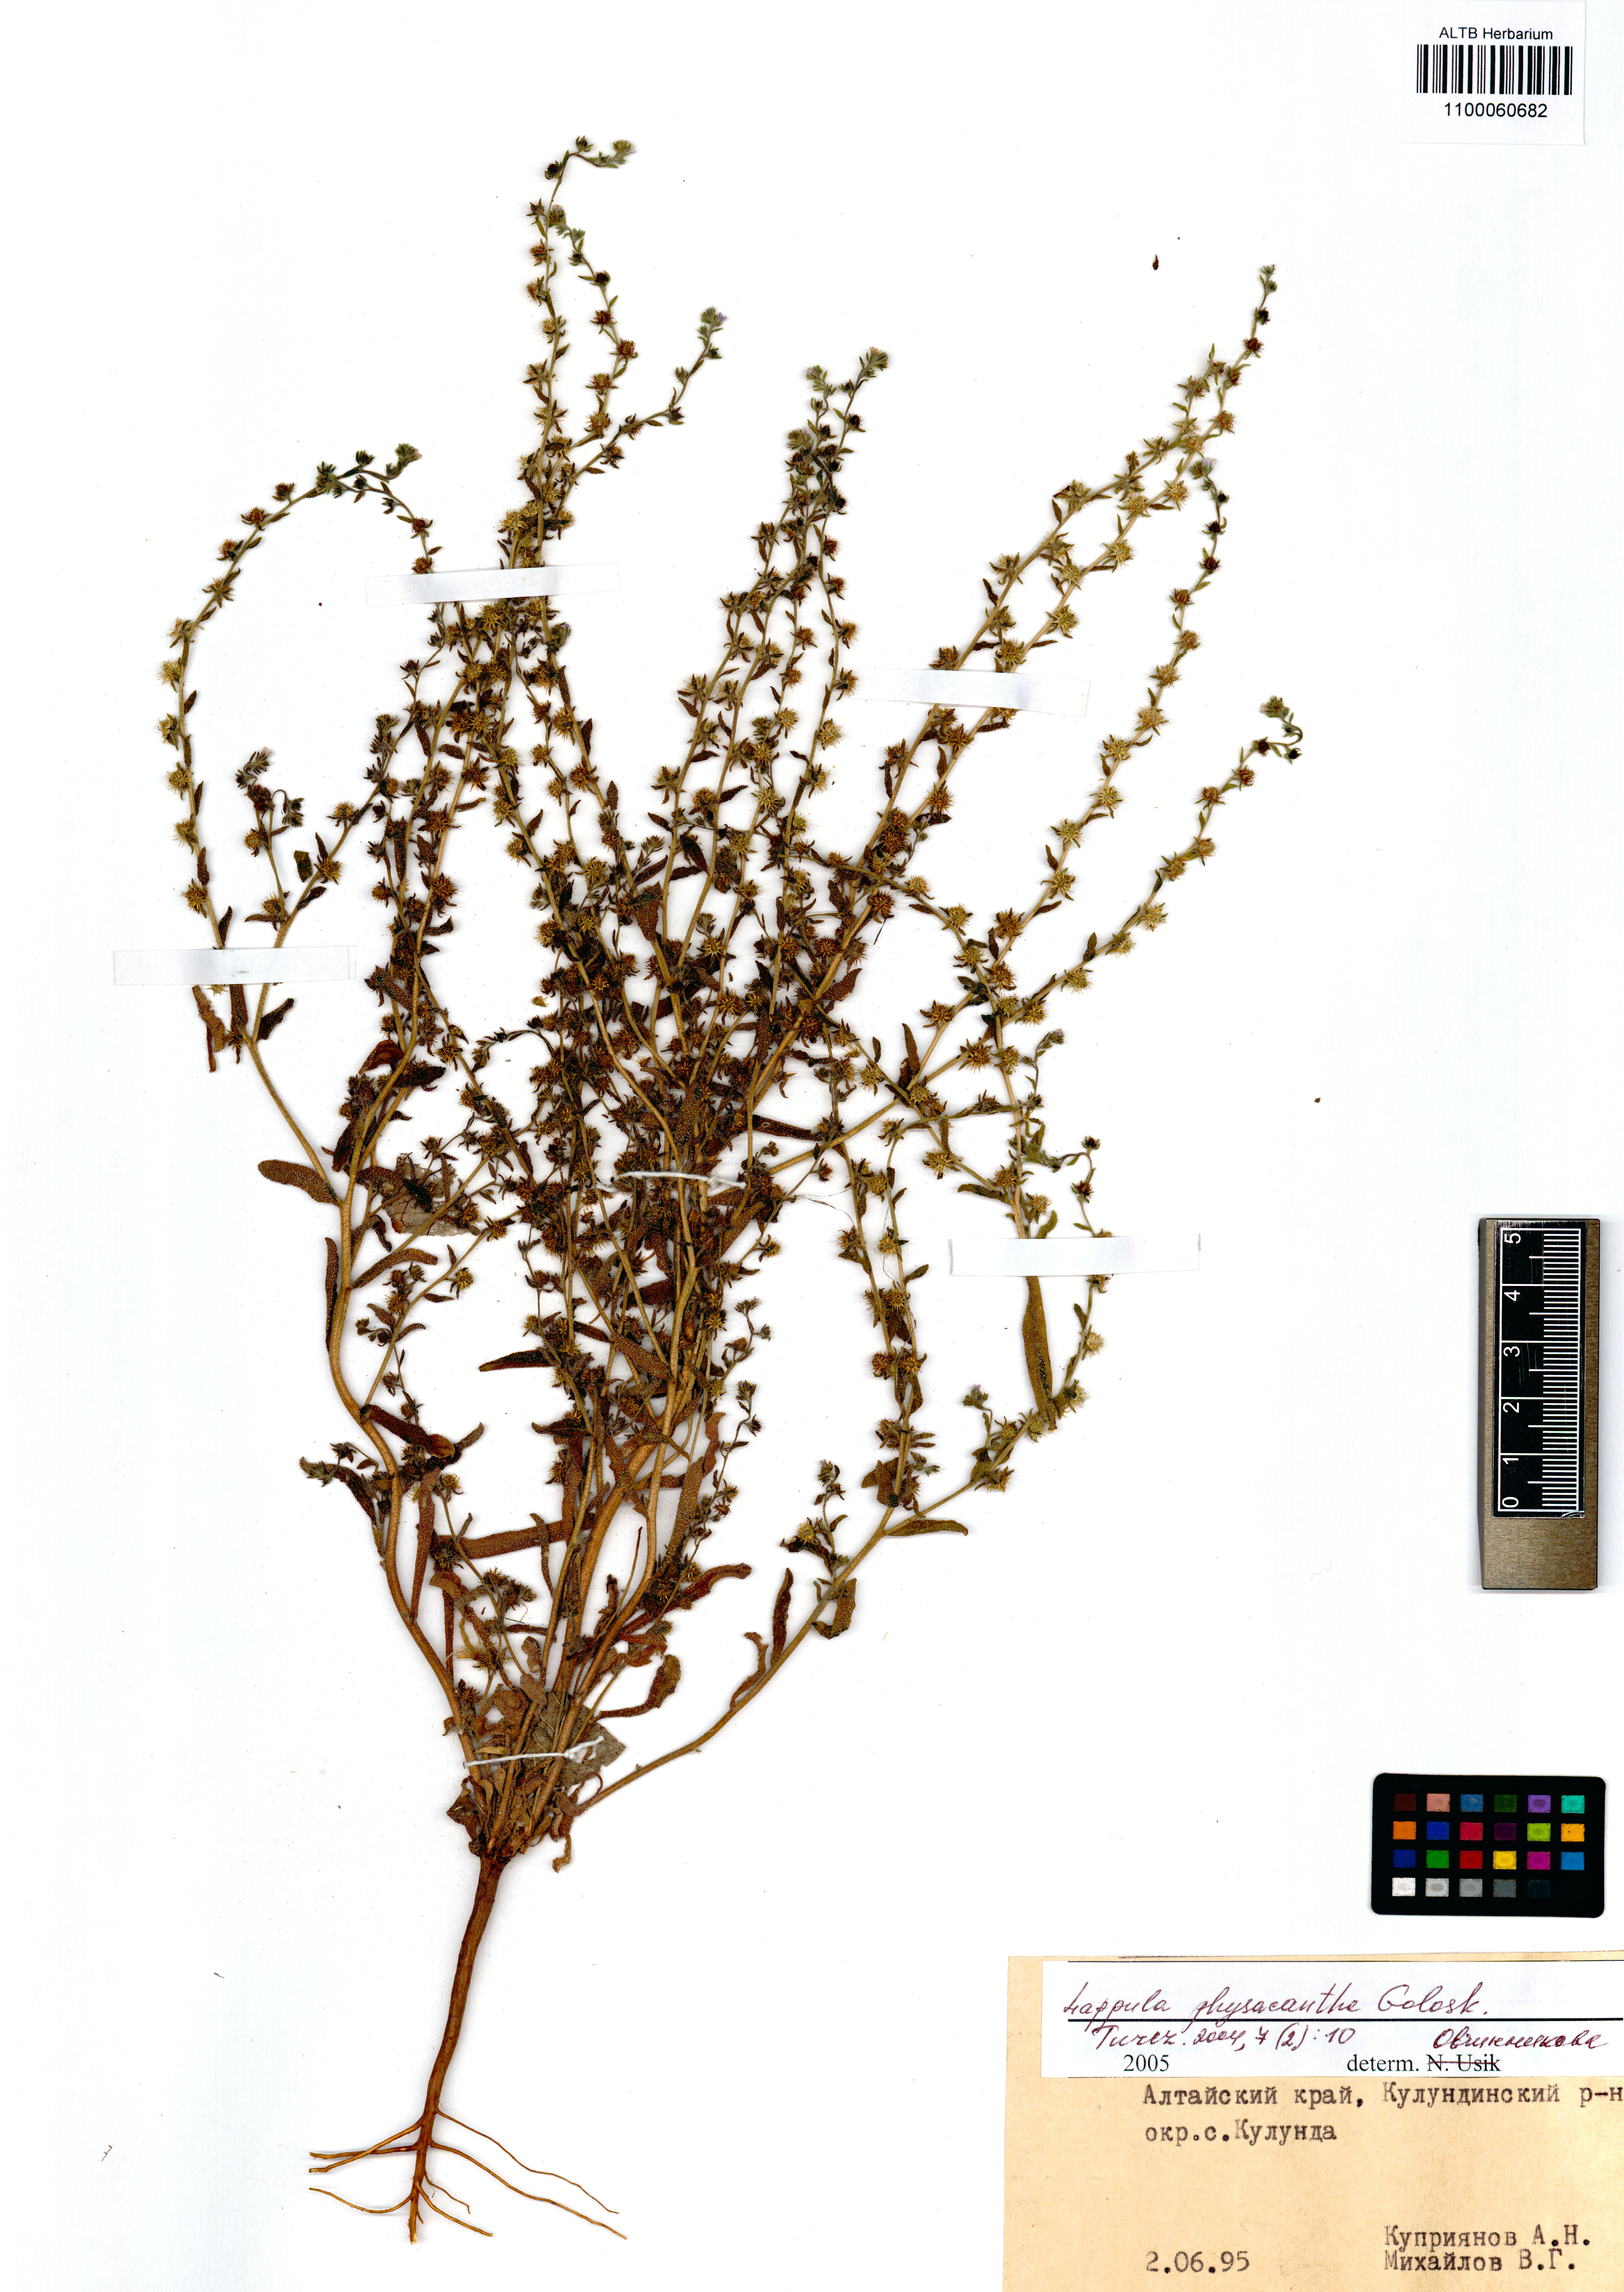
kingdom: Plantae
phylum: Tracheophyta
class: Magnoliopsida
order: Boraginales
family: Boraginaceae
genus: Lappula
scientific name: Lappula physacantha
